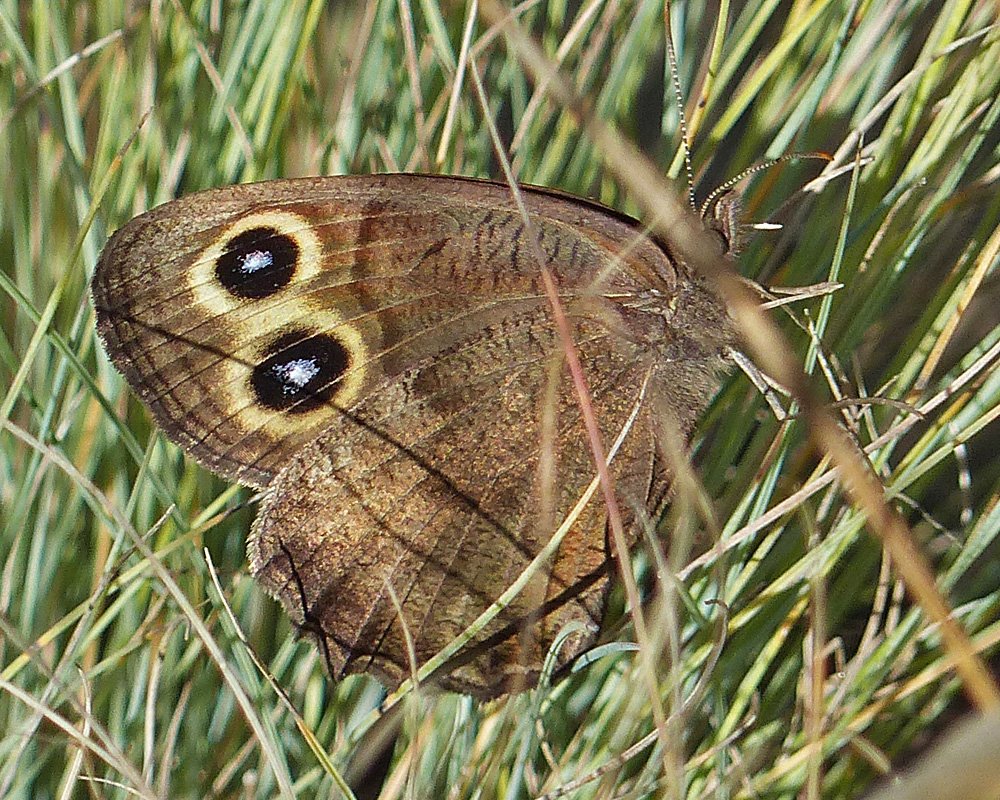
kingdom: Animalia
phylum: Arthropoda
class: Insecta
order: Lepidoptera
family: Nymphalidae
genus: Cercyonis
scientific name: Cercyonis pegala
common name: Common Wood-Nymph
